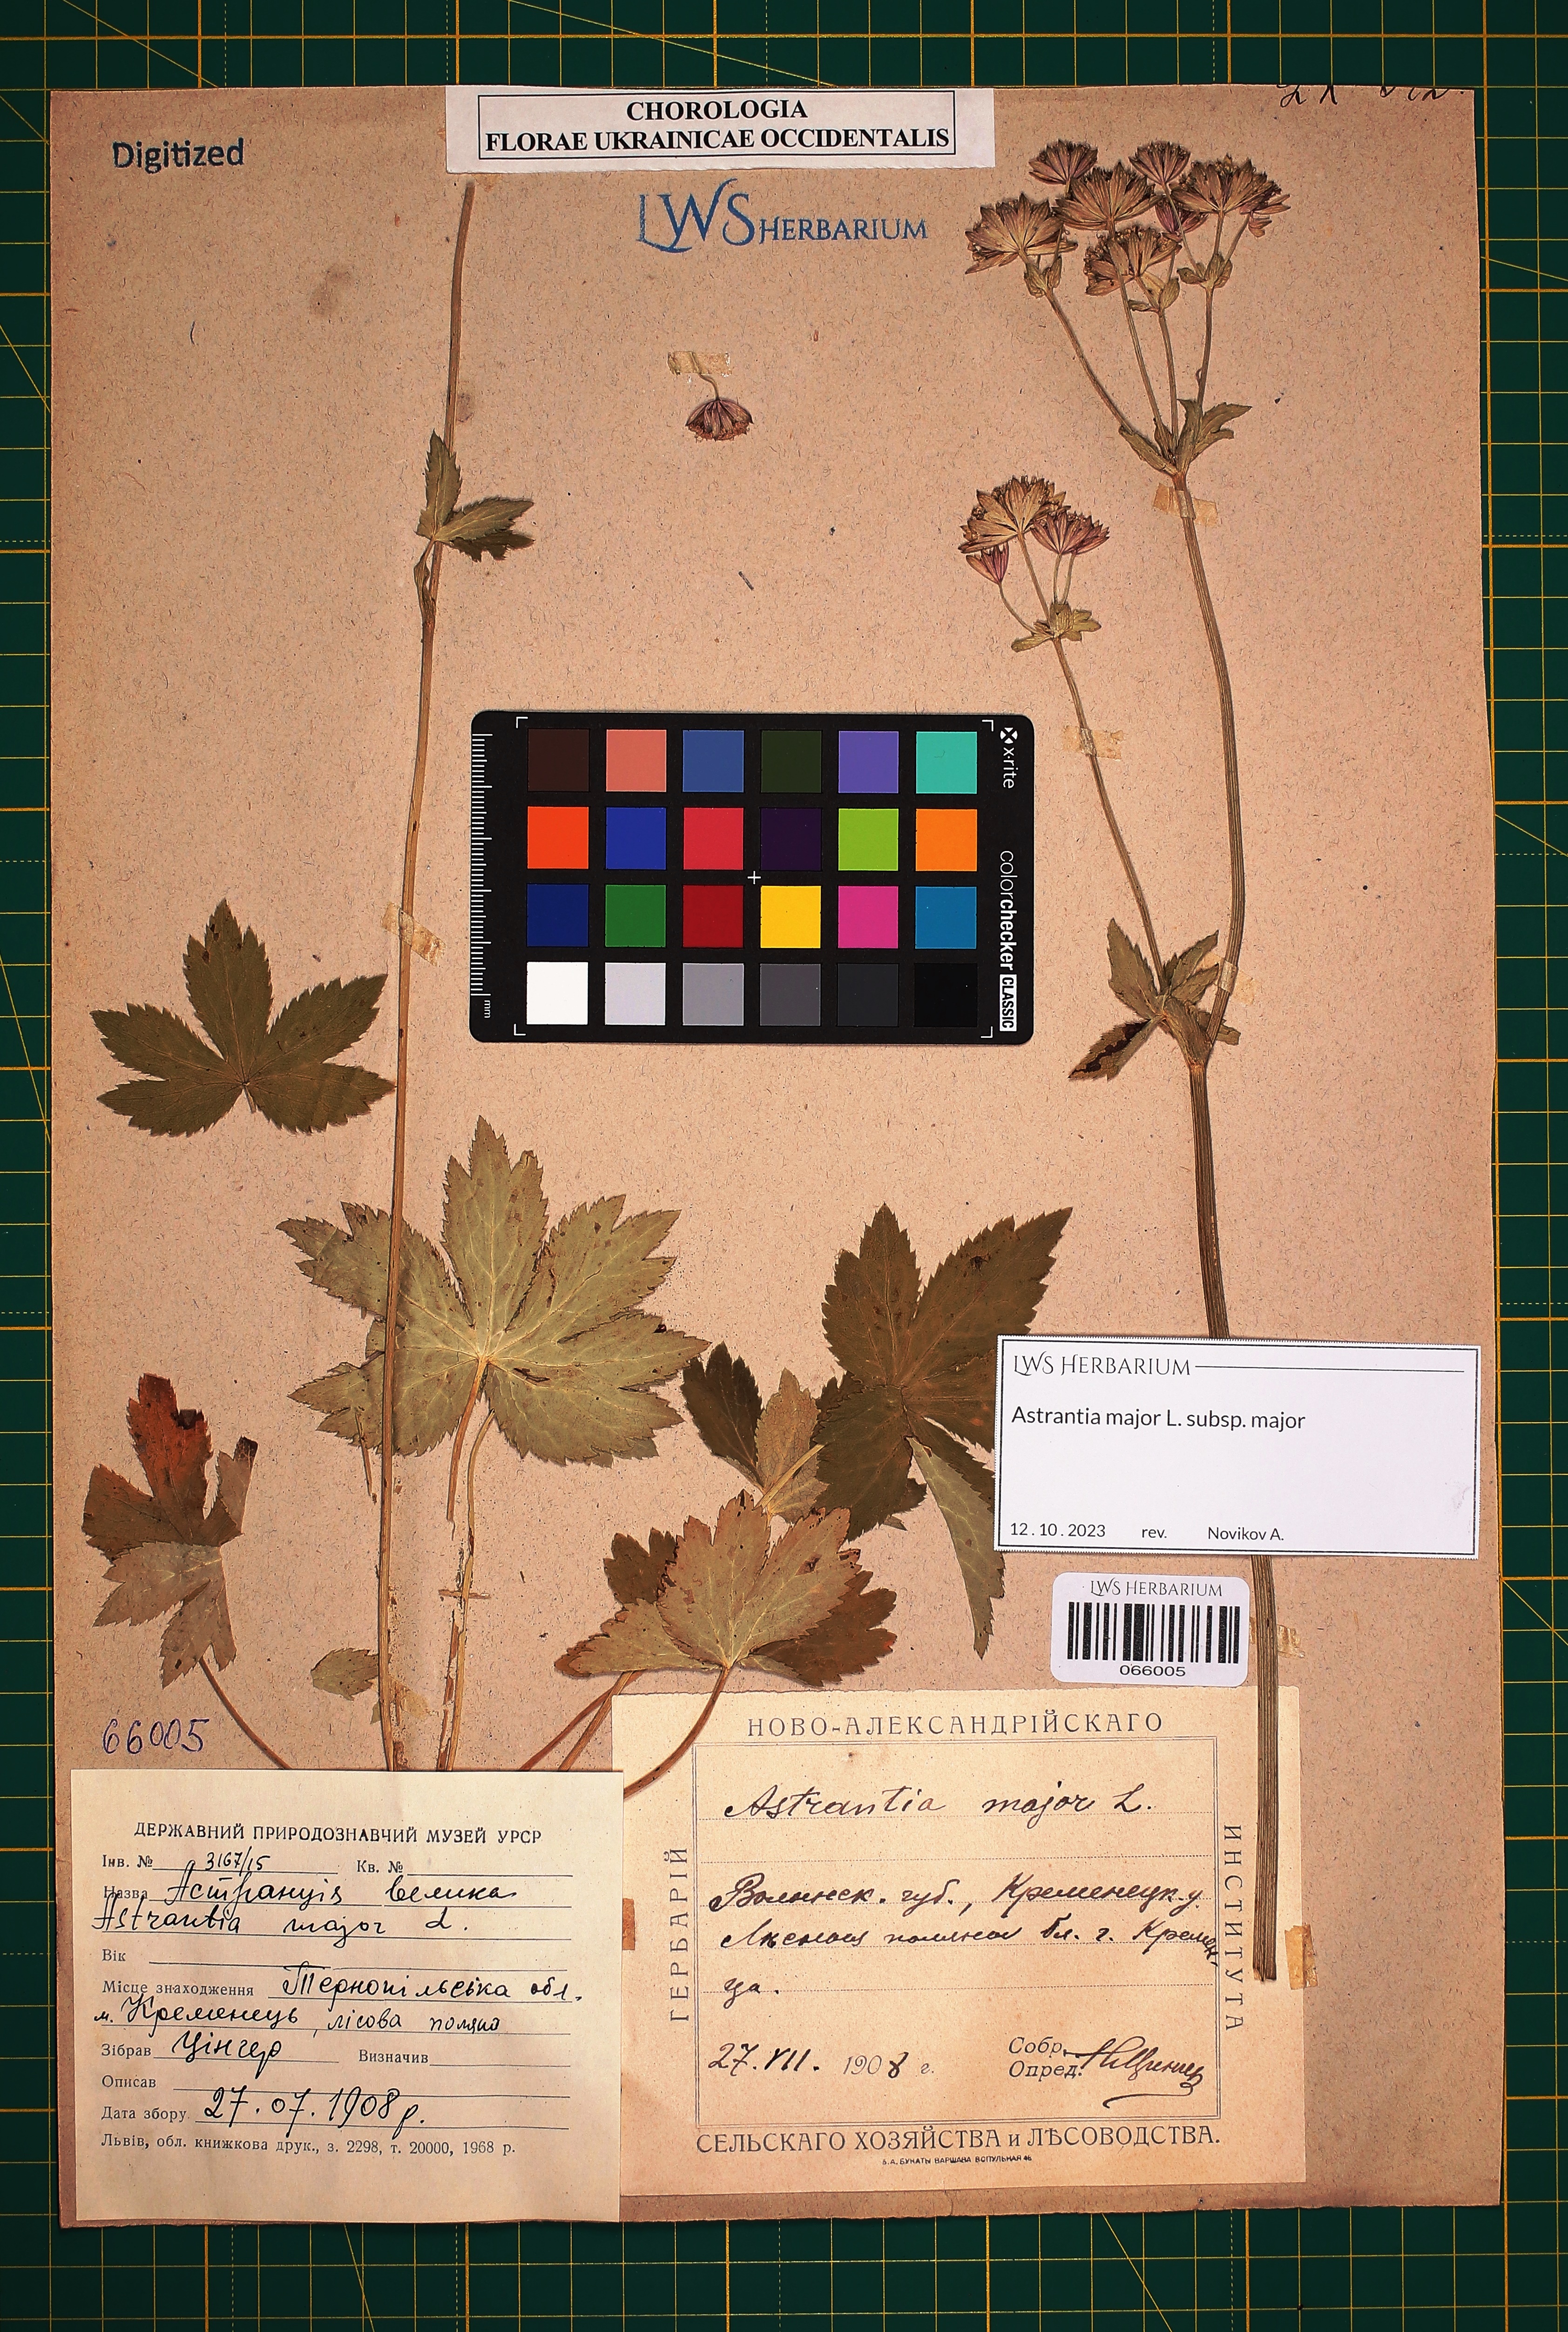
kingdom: Plantae
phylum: Tracheophyta
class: Magnoliopsida
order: Apiales
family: Apiaceae
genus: Astrantia
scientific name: Astrantia major
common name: Greater masterwort
